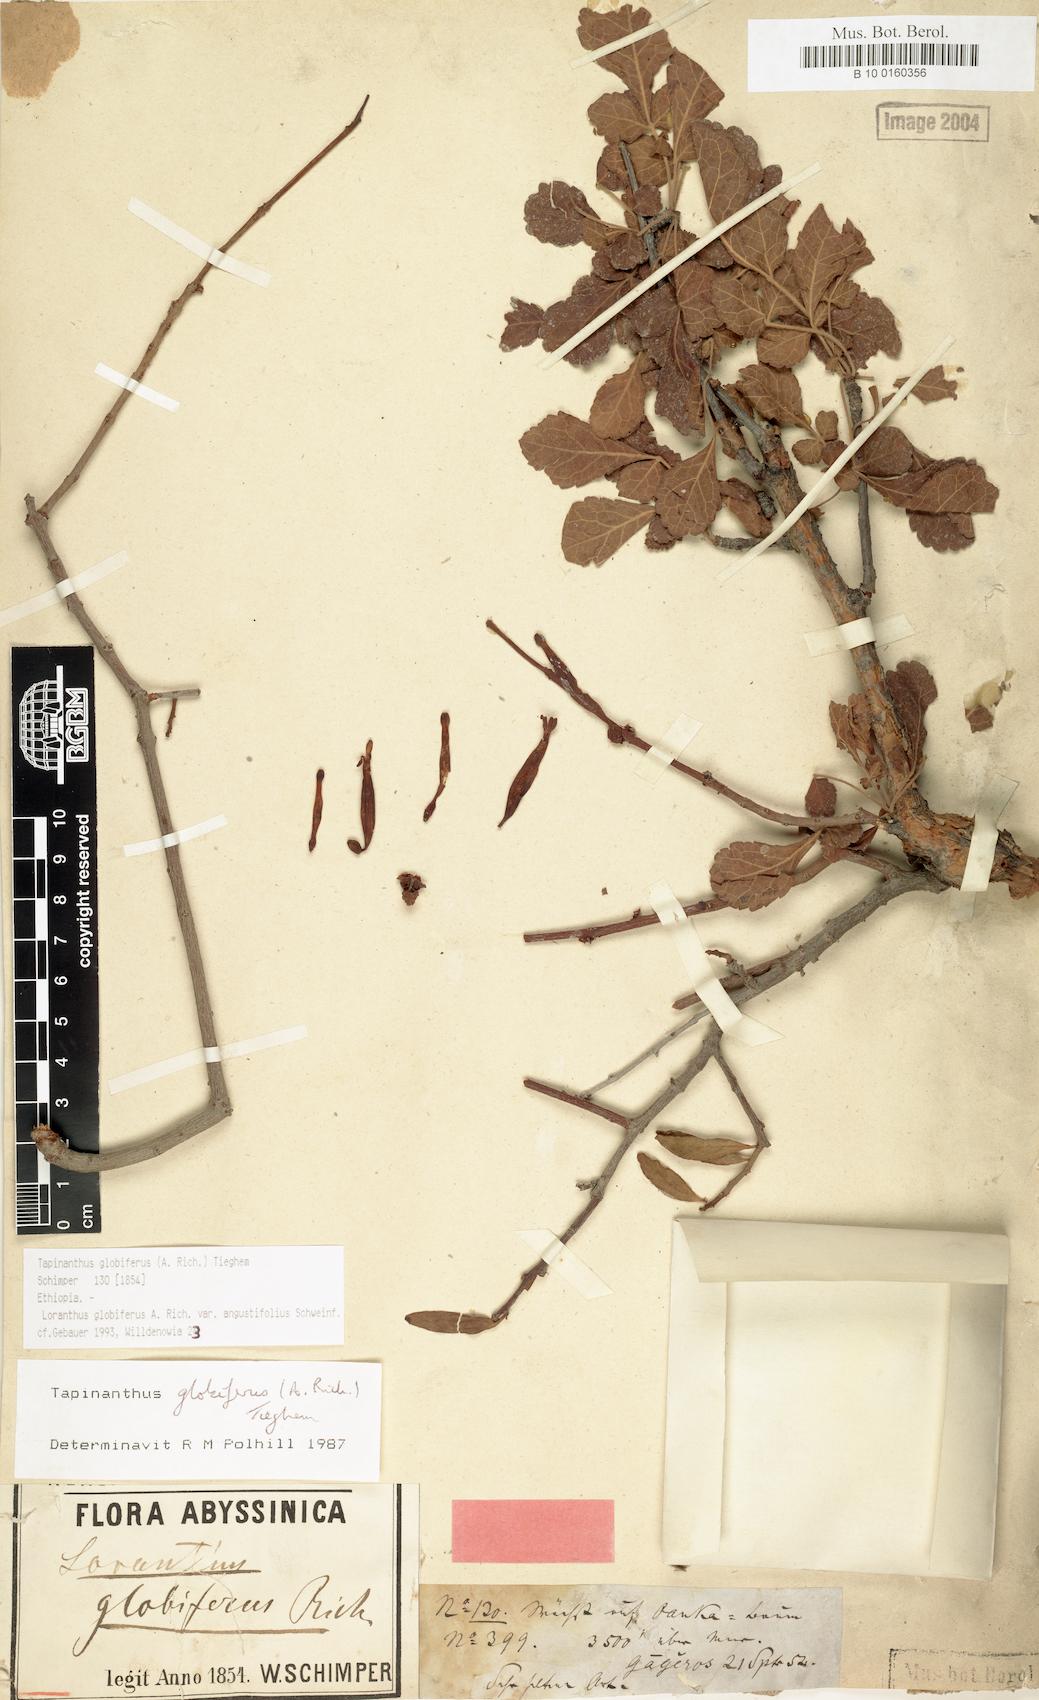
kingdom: Plantae
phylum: Tracheophyta
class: Magnoliopsida
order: Santalales
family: Loranthaceae
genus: Tapinanthus
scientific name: Tapinanthus globiferus
